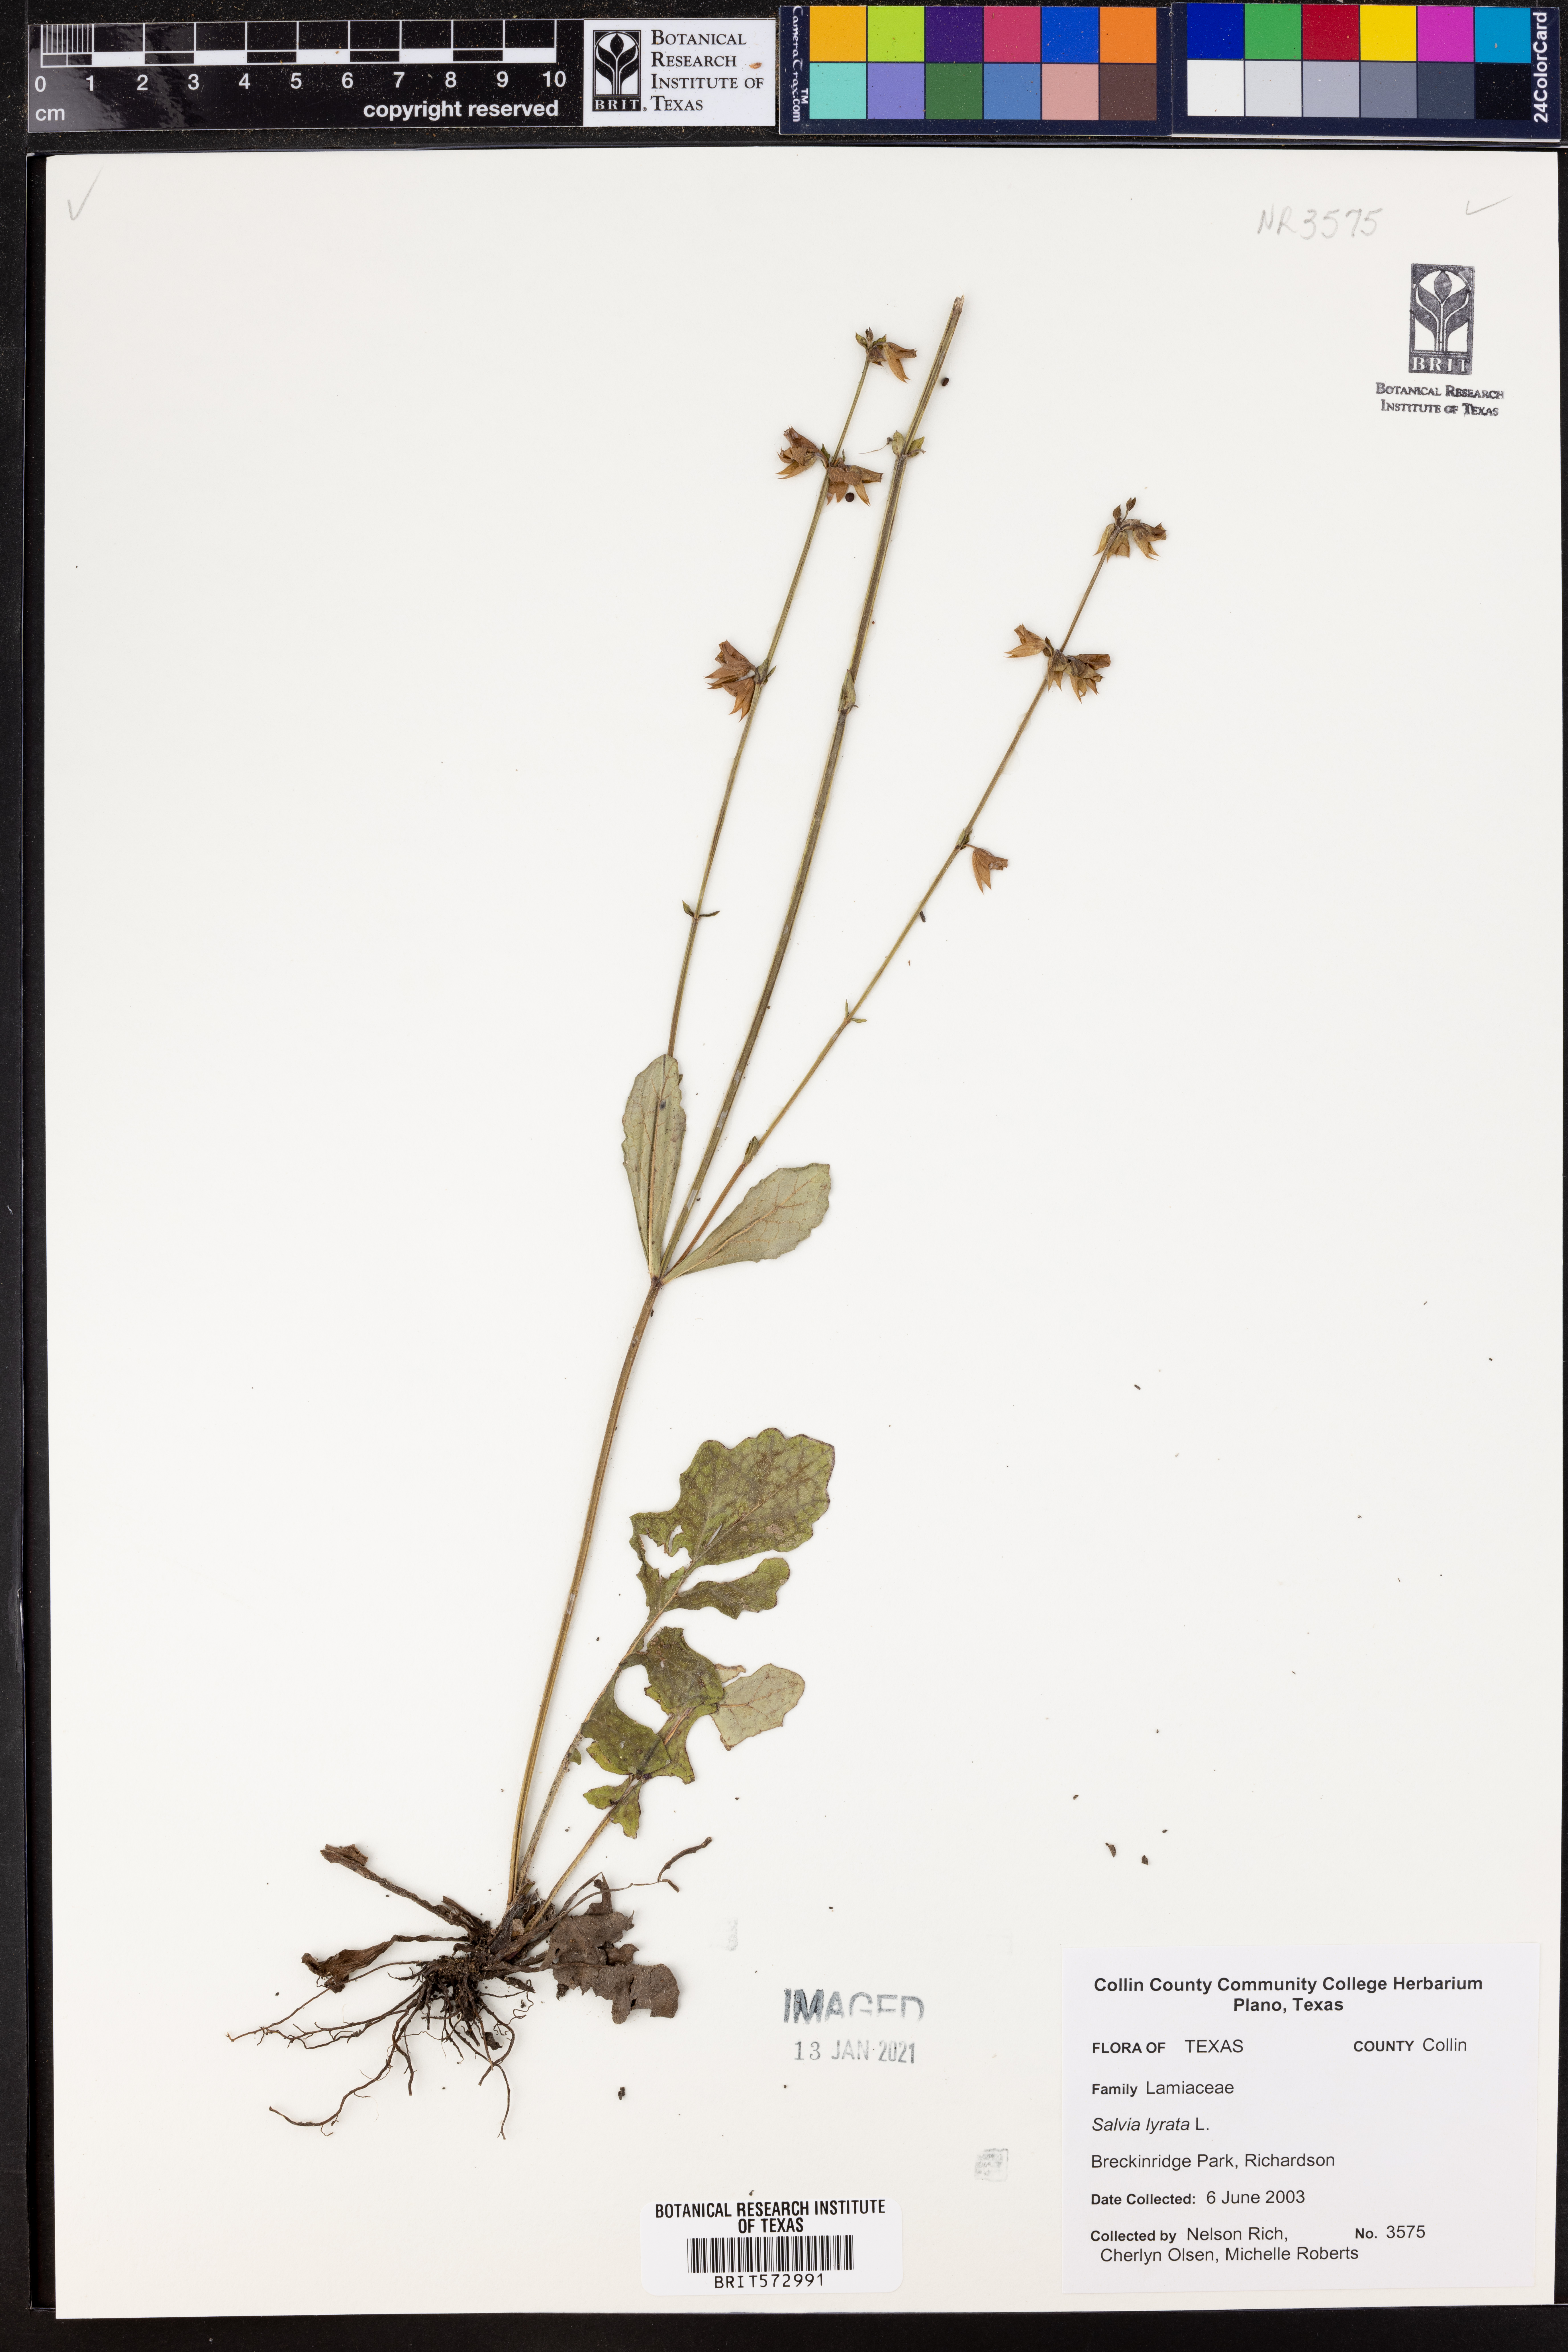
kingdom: Plantae
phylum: Tracheophyta
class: Magnoliopsida
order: Lamiales
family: Lamiaceae
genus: Salvia
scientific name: Salvia lyrata
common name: Cancerweed
